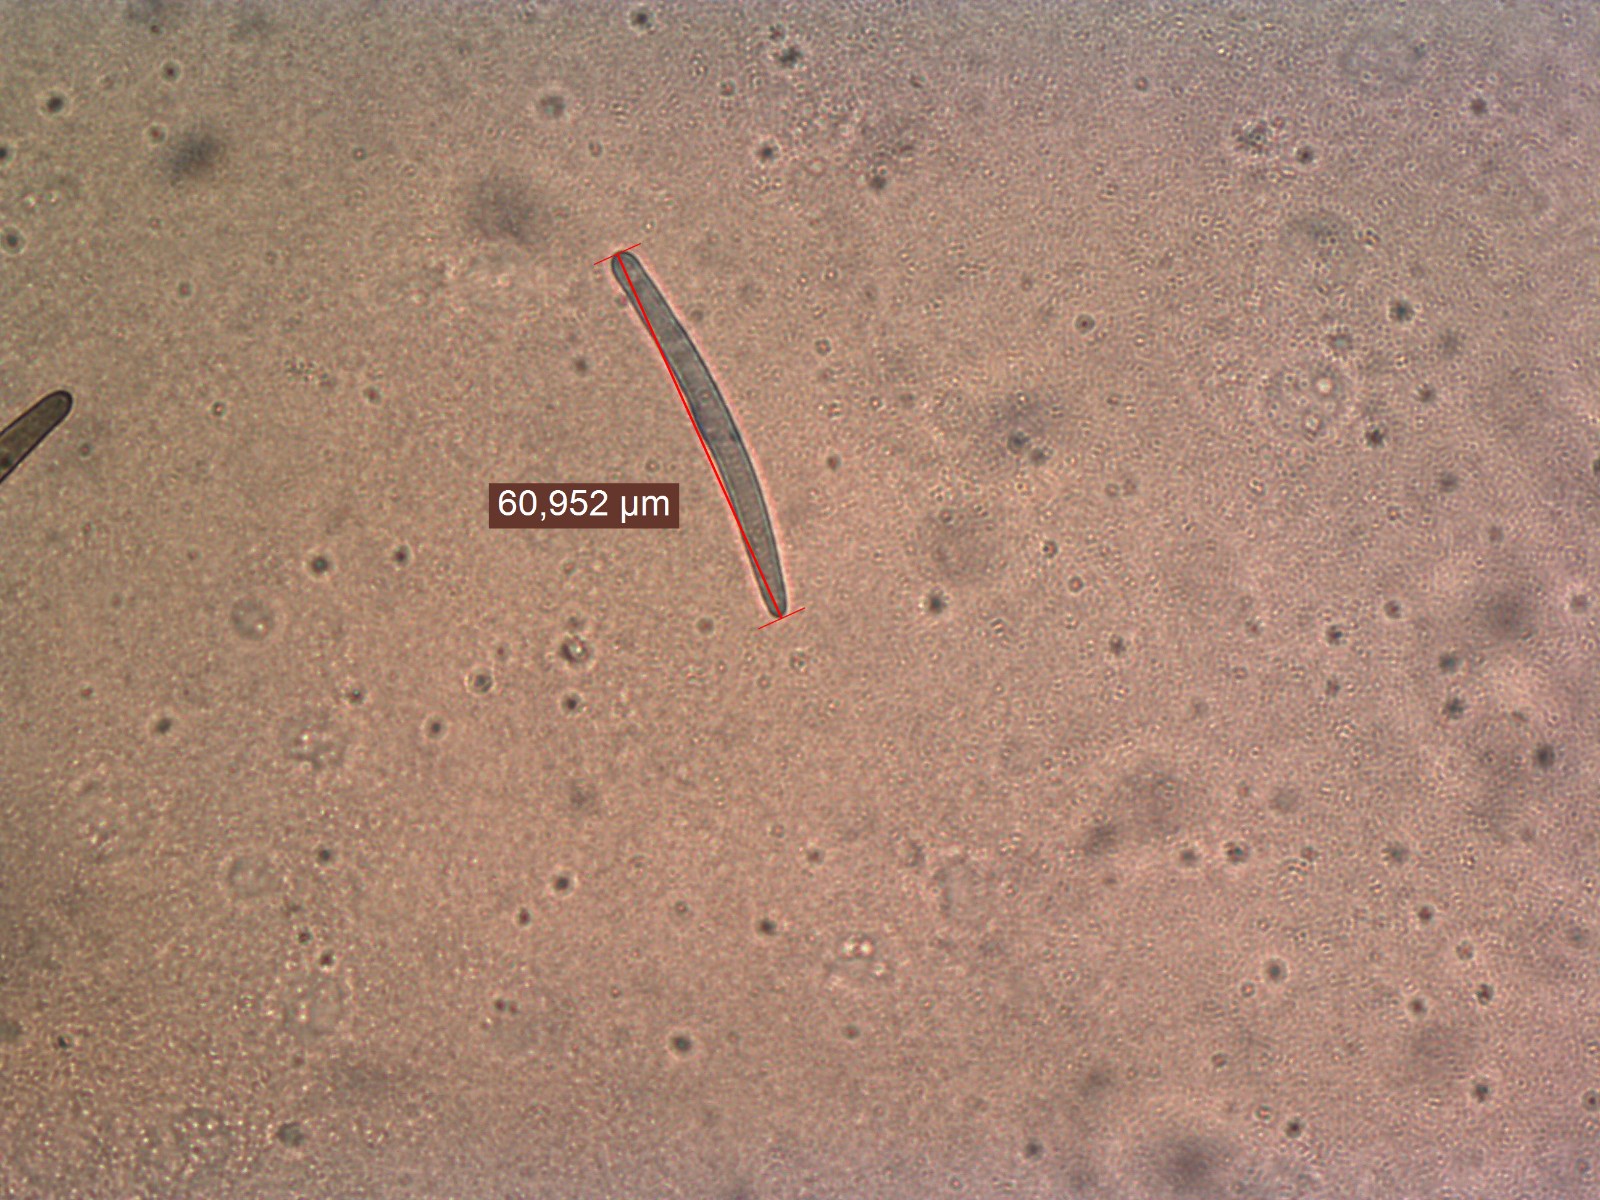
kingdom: Fungi
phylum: Ascomycota
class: Geoglossomycetes
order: Geoglossales
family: Geoglossaceae
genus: Hemileucoglossum
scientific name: Hemileucoglossum elongatum
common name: småsporet jordtunge
